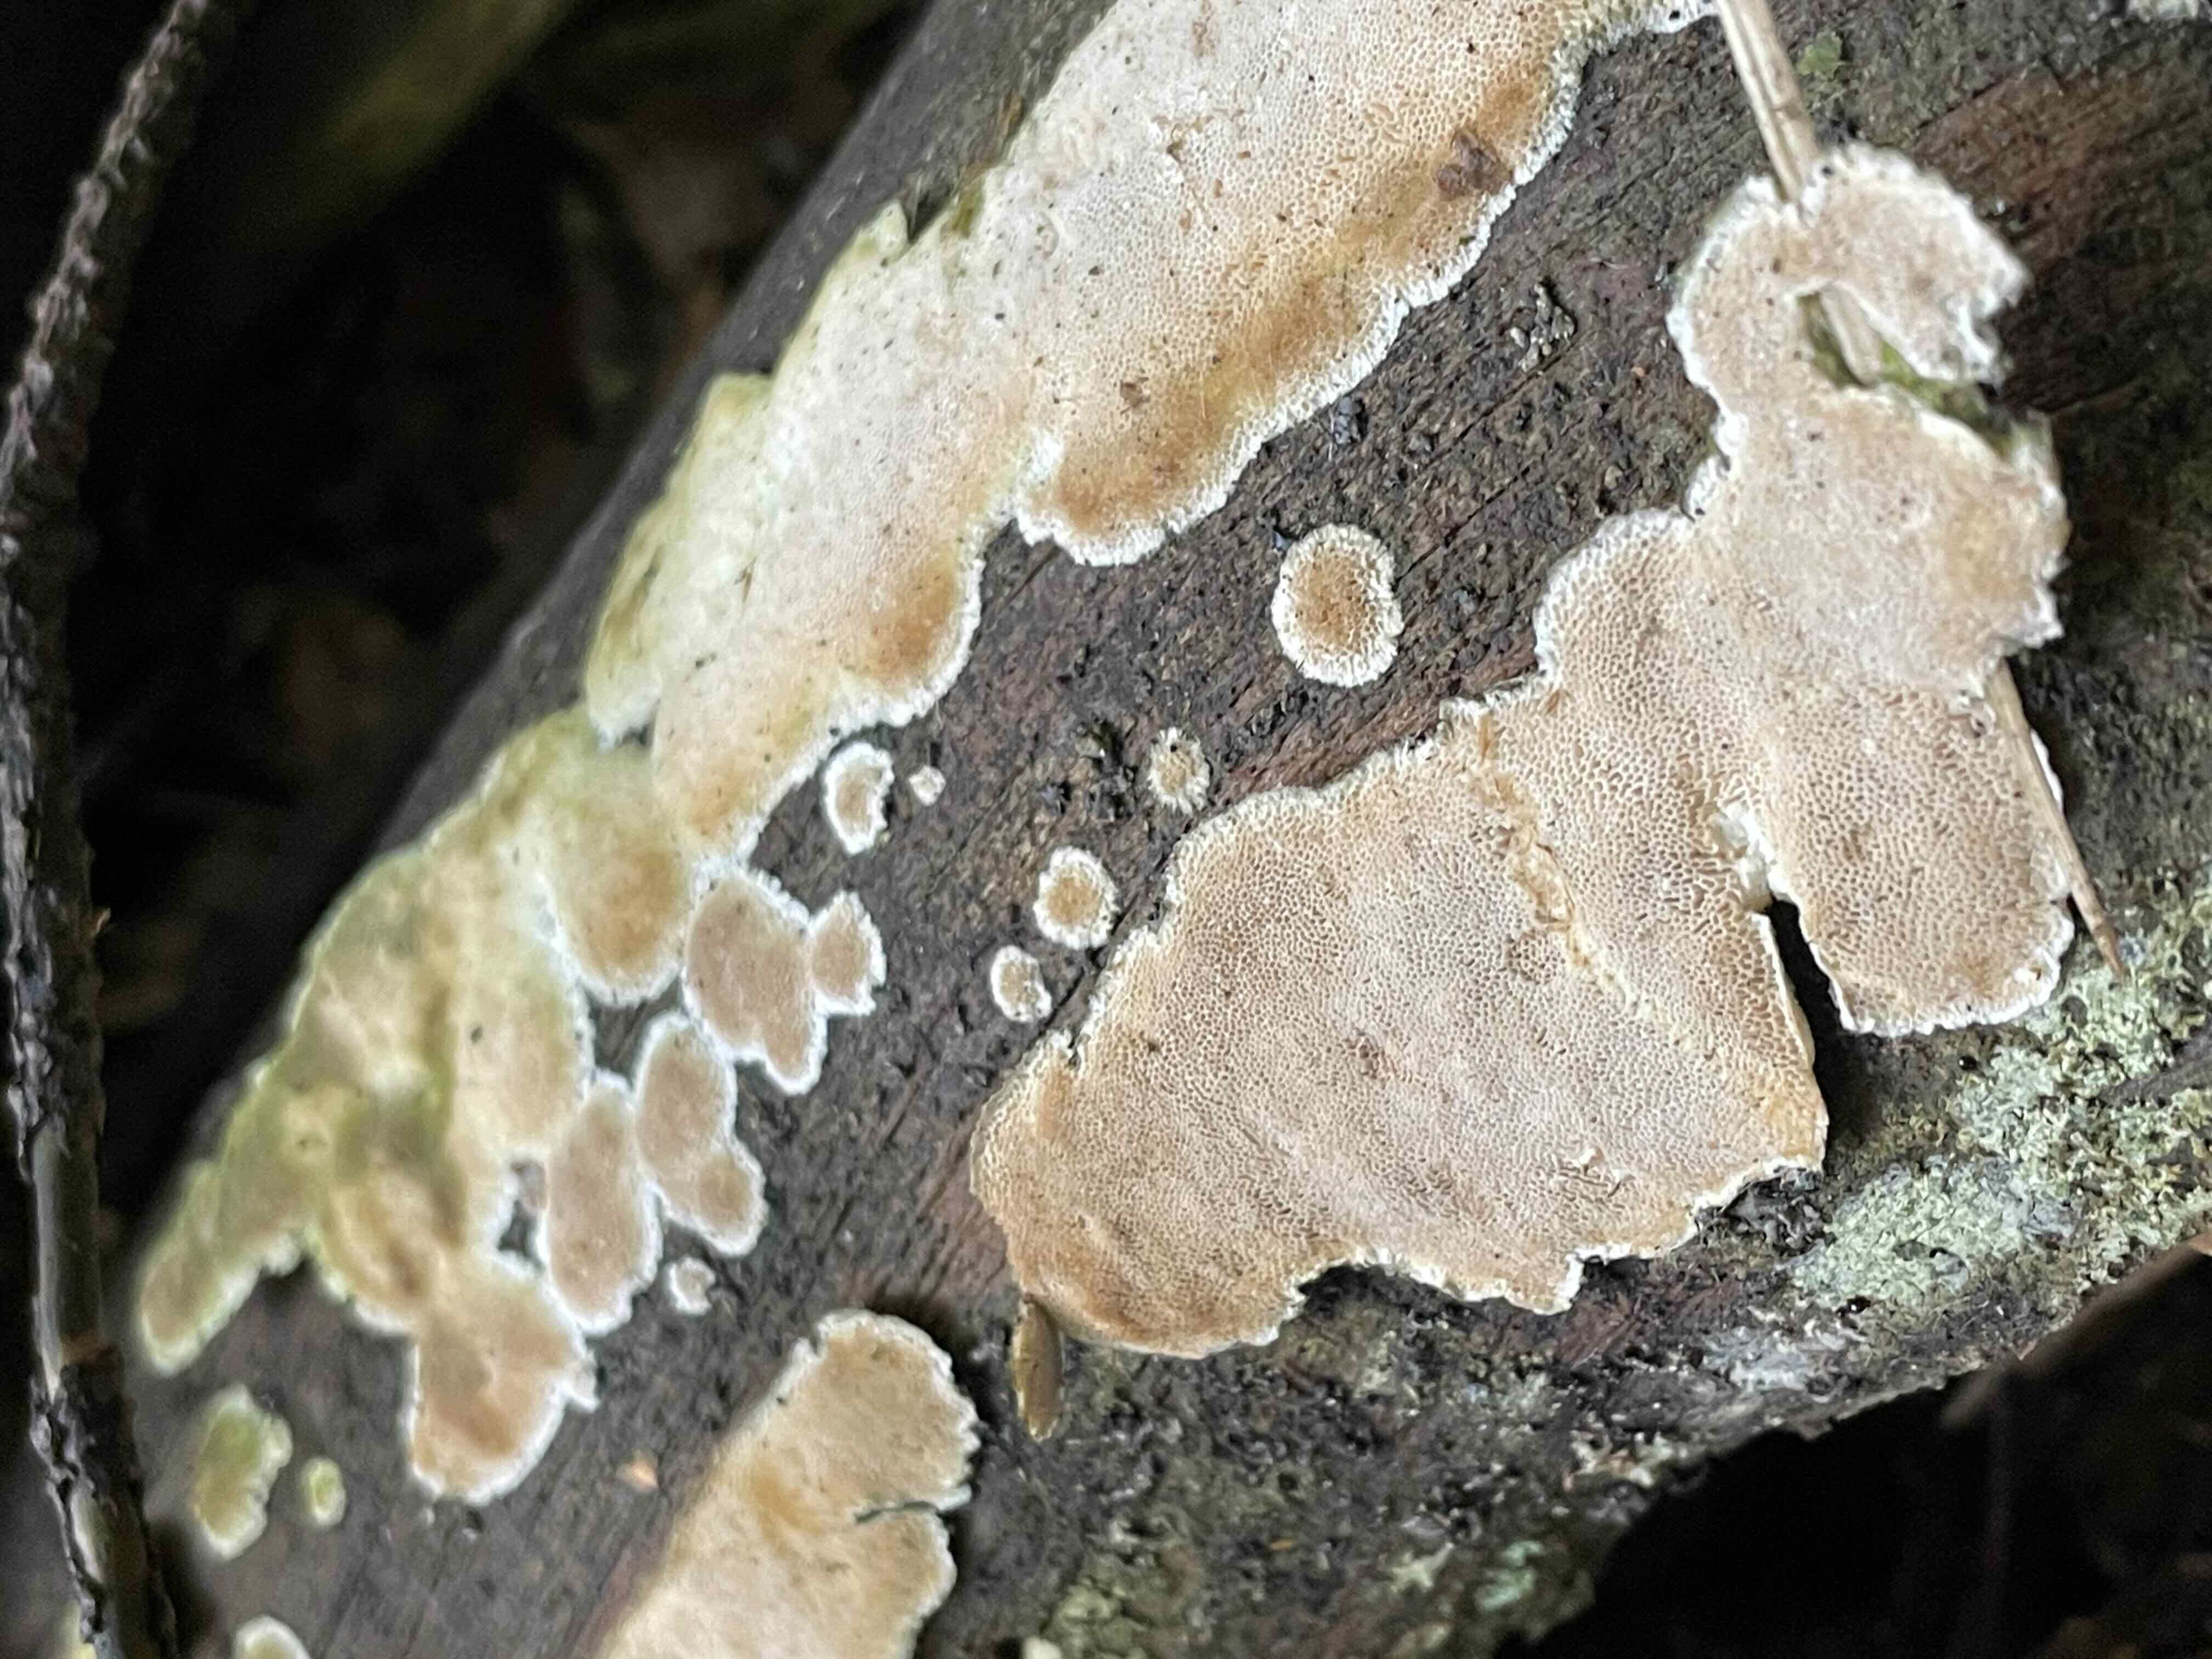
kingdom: Fungi
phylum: Basidiomycota
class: Agaricomycetes
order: Polyporales
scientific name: Polyporales
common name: poresvampordenen
